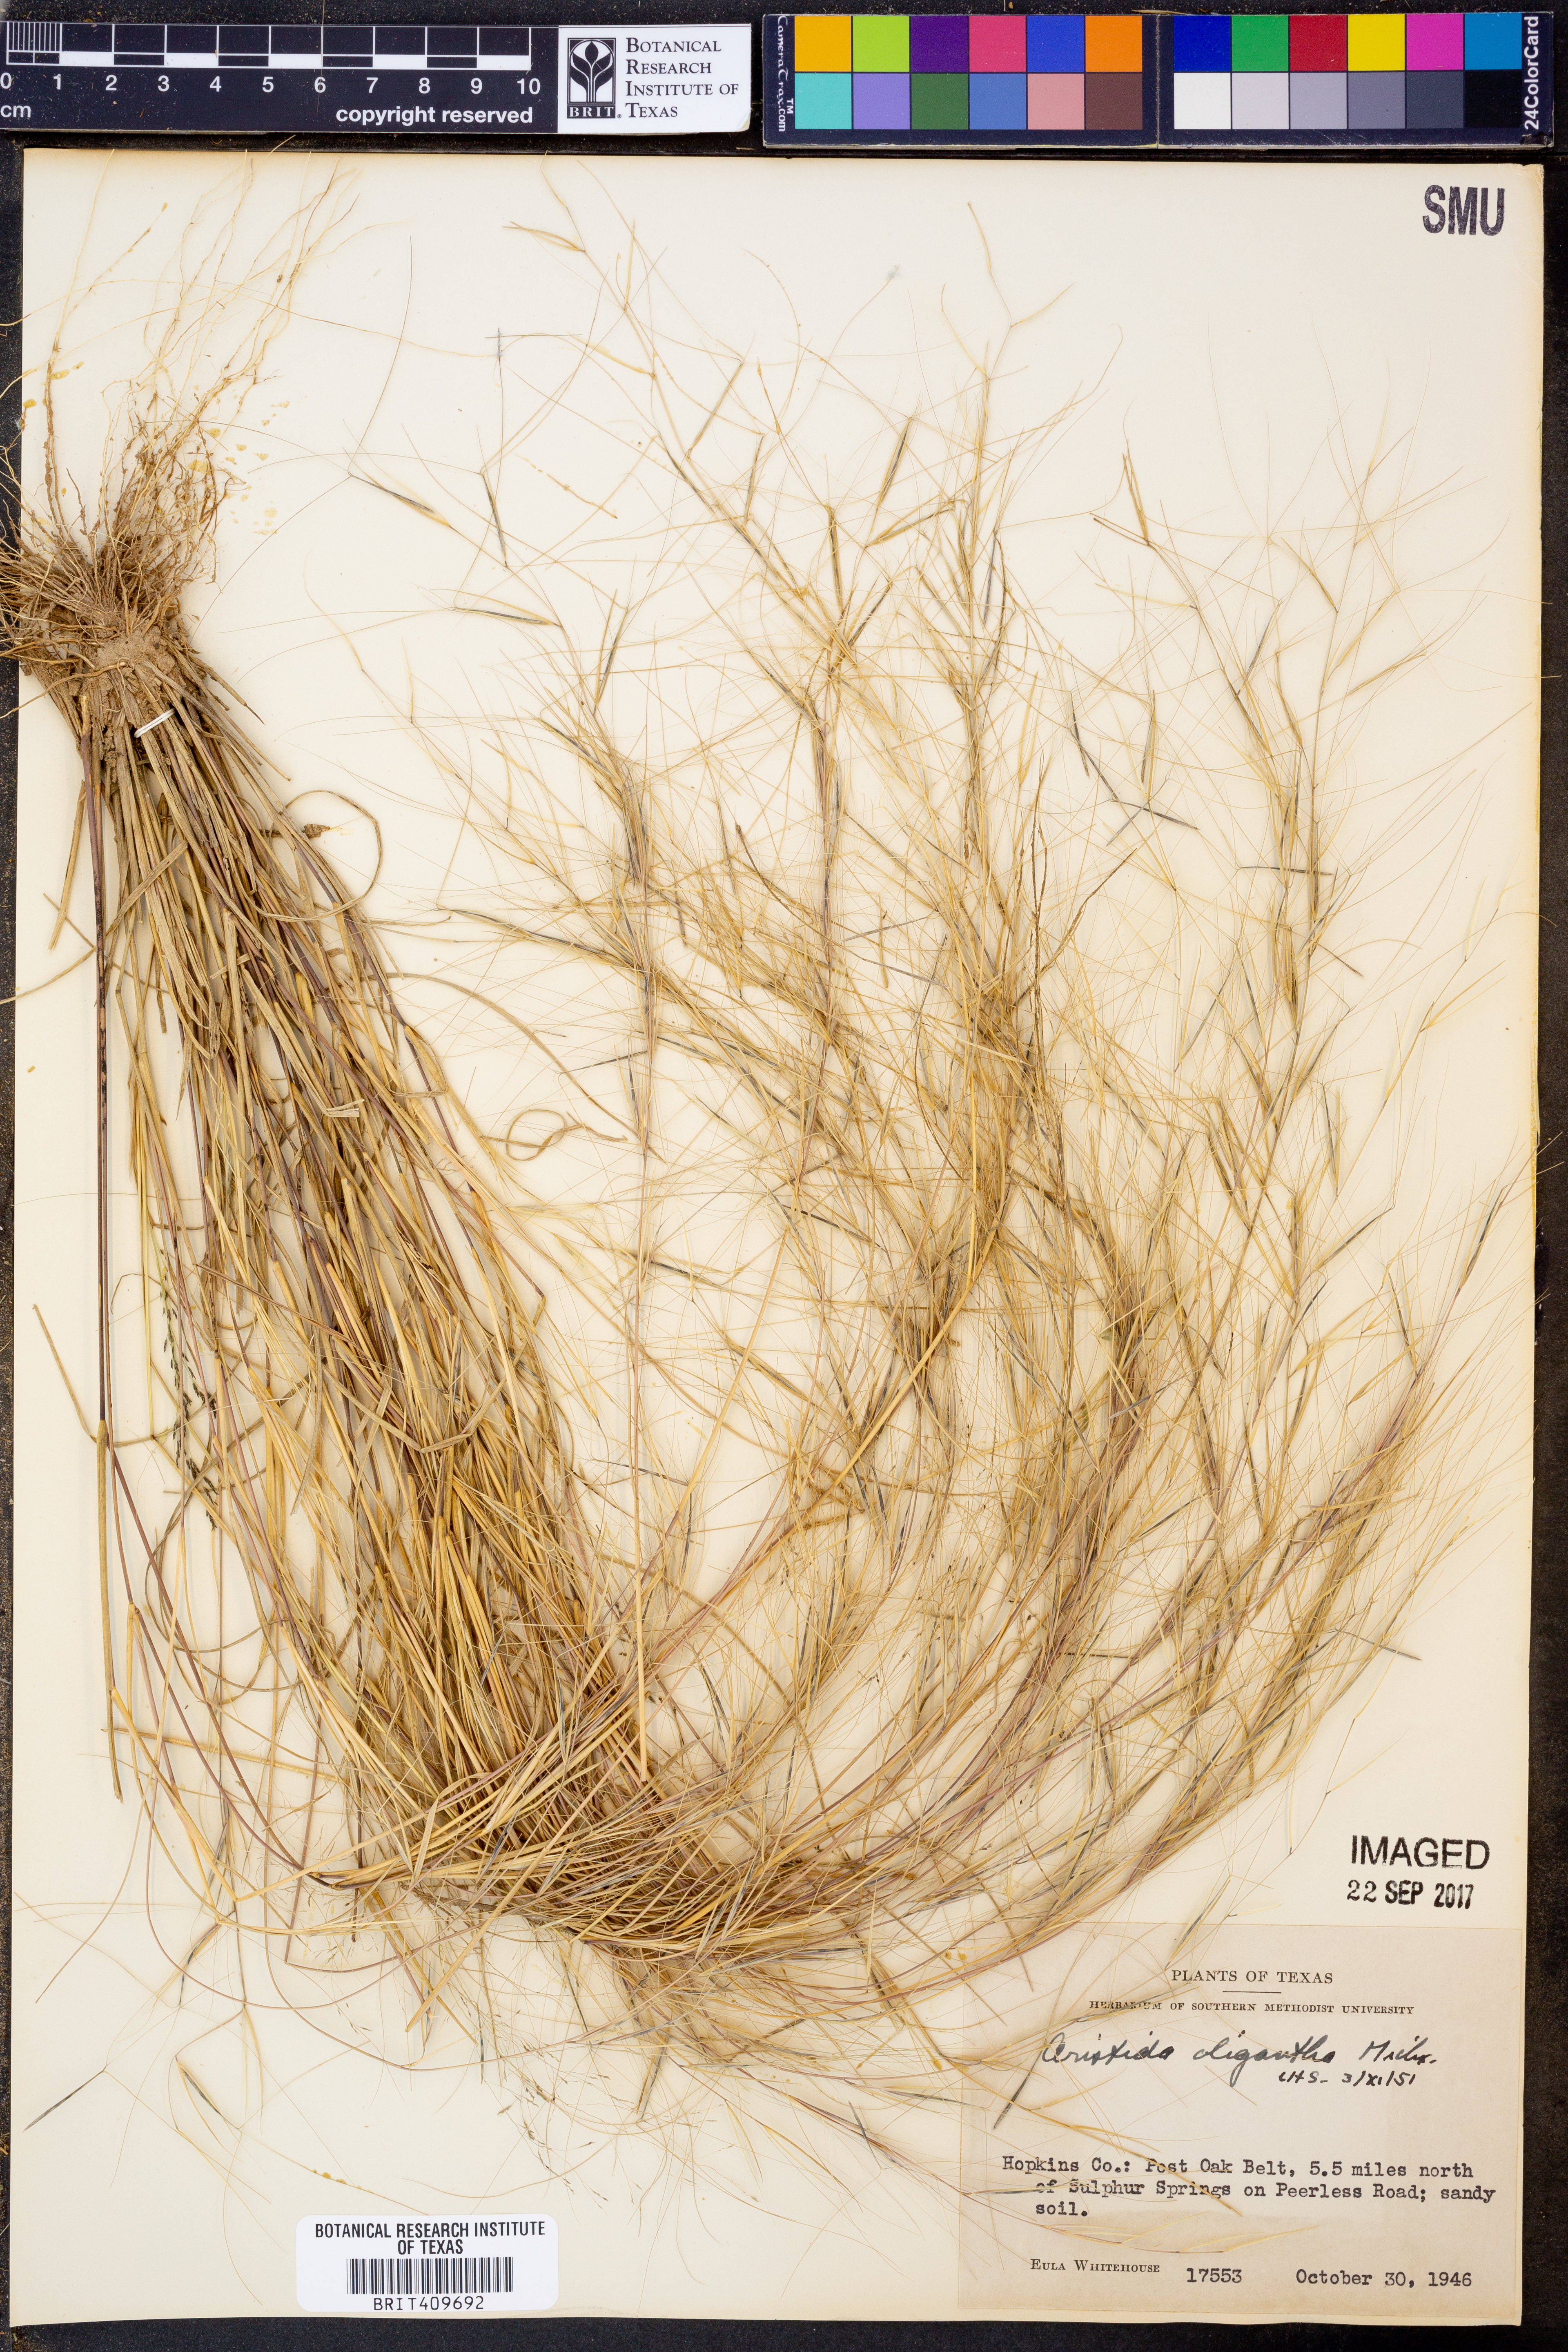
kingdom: Plantae
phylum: Tracheophyta
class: Liliopsida
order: Poales
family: Poaceae
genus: Aristida
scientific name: Aristida oligantha
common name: Few-flowered aristida
